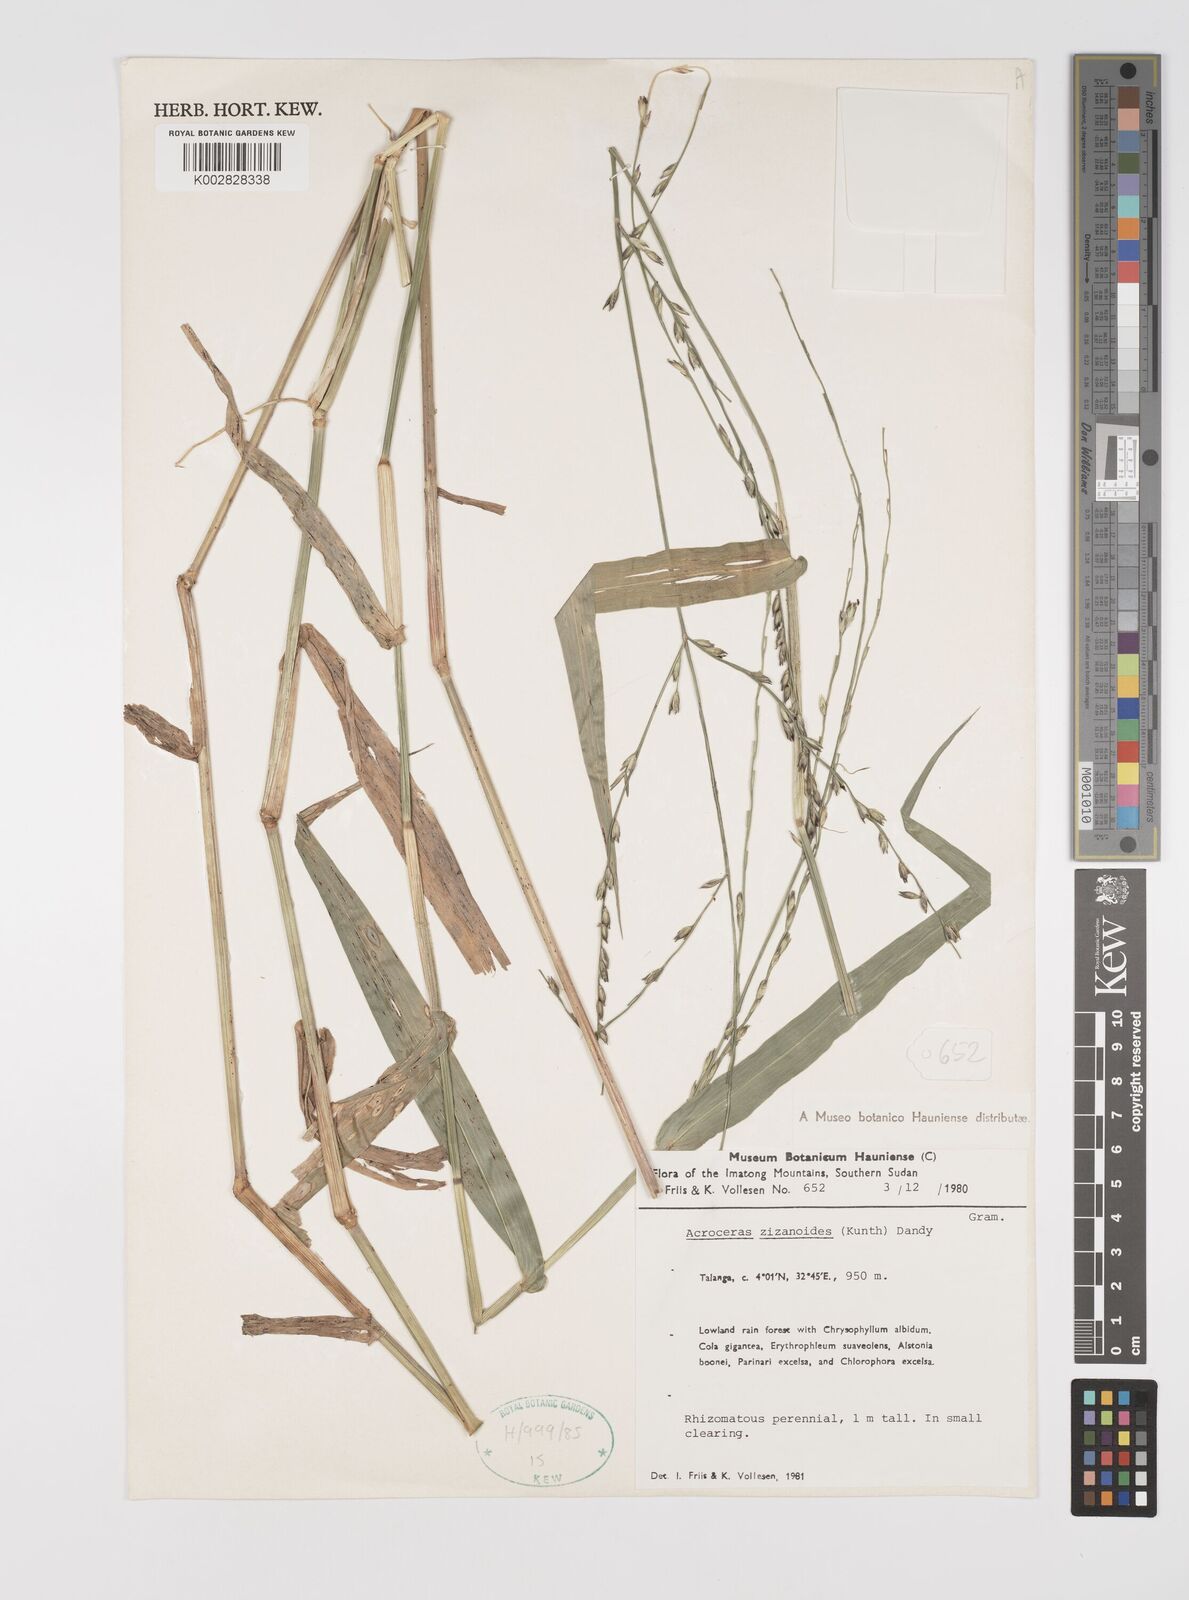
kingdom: Plantae
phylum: Tracheophyta
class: Liliopsida
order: Poales
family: Poaceae
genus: Acroceras
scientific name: Acroceras zizanioides
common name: Oat grass
